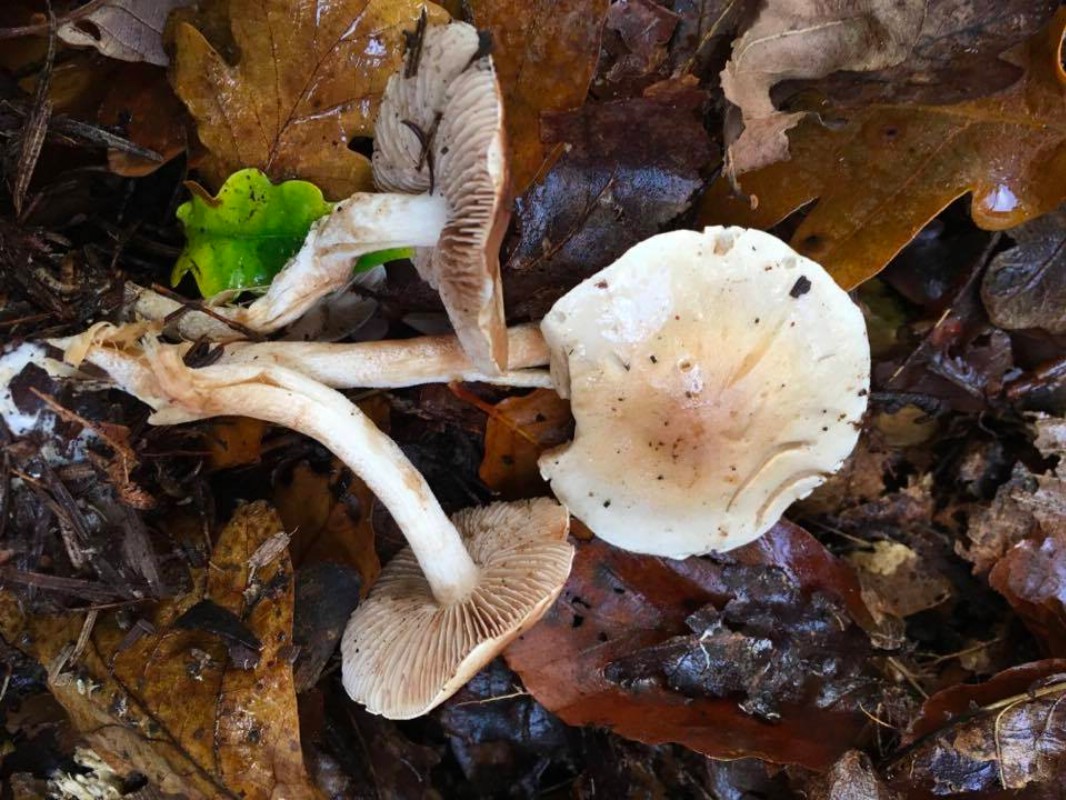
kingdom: Fungi
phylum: Basidiomycota
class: Agaricomycetes
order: Agaricales
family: Hymenogastraceae
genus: Hebeloma
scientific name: Hebeloma
